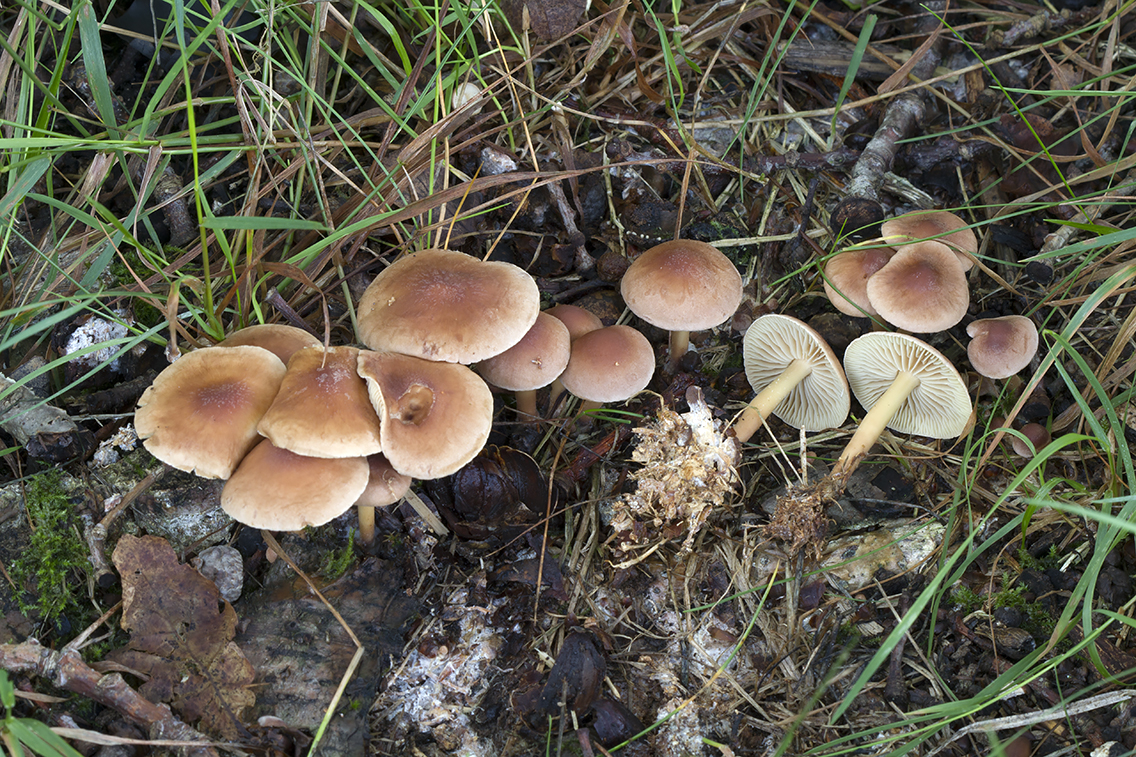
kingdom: Fungi
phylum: Basidiomycota
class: Agaricomycetes
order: Agaricales
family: Omphalotaceae
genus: Collybiopsis
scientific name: Collybiopsis peronata
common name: bestøvlet fladhat
